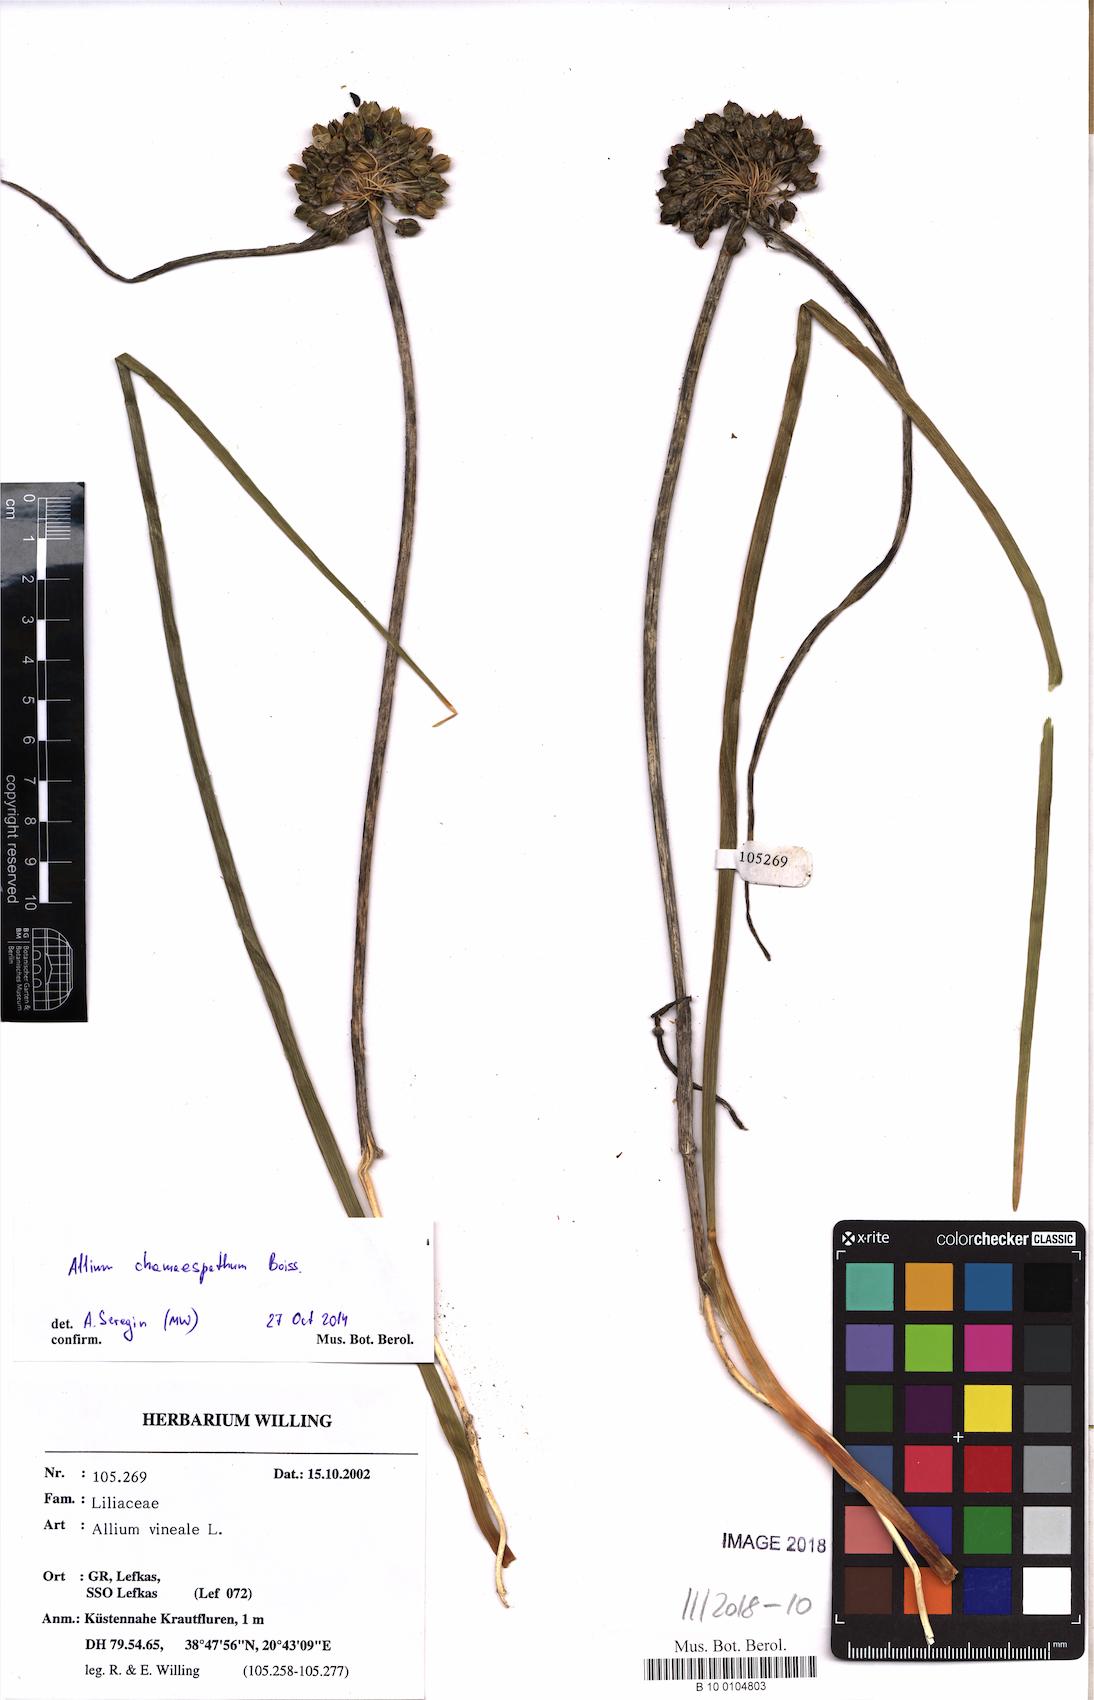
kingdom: Plantae
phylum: Tracheophyta
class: Liliopsida
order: Asparagales
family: Amaryllidaceae
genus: Allium
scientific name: Allium chamaespathum
